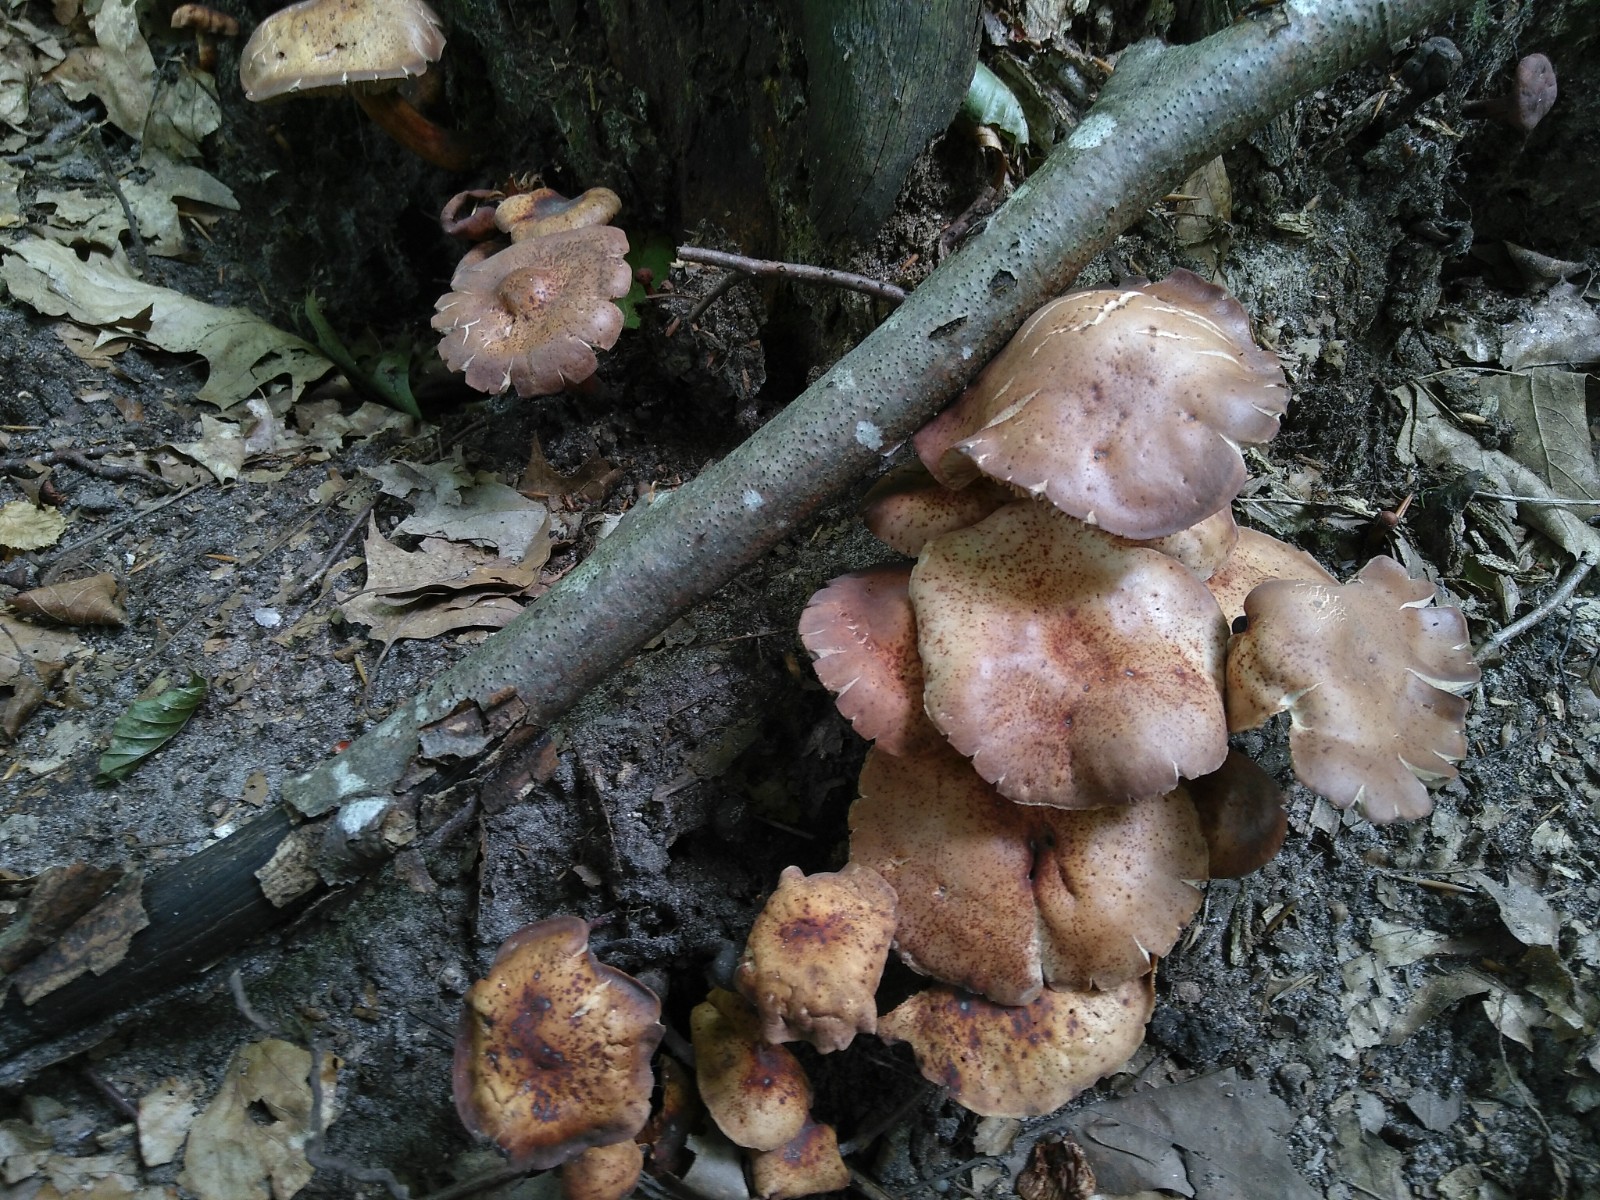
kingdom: Fungi
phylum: Basidiomycota
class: Agaricomycetes
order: Agaricales
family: Omphalotaceae
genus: Gymnopus
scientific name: Gymnopus fusipes
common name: tenstokket fladhat
